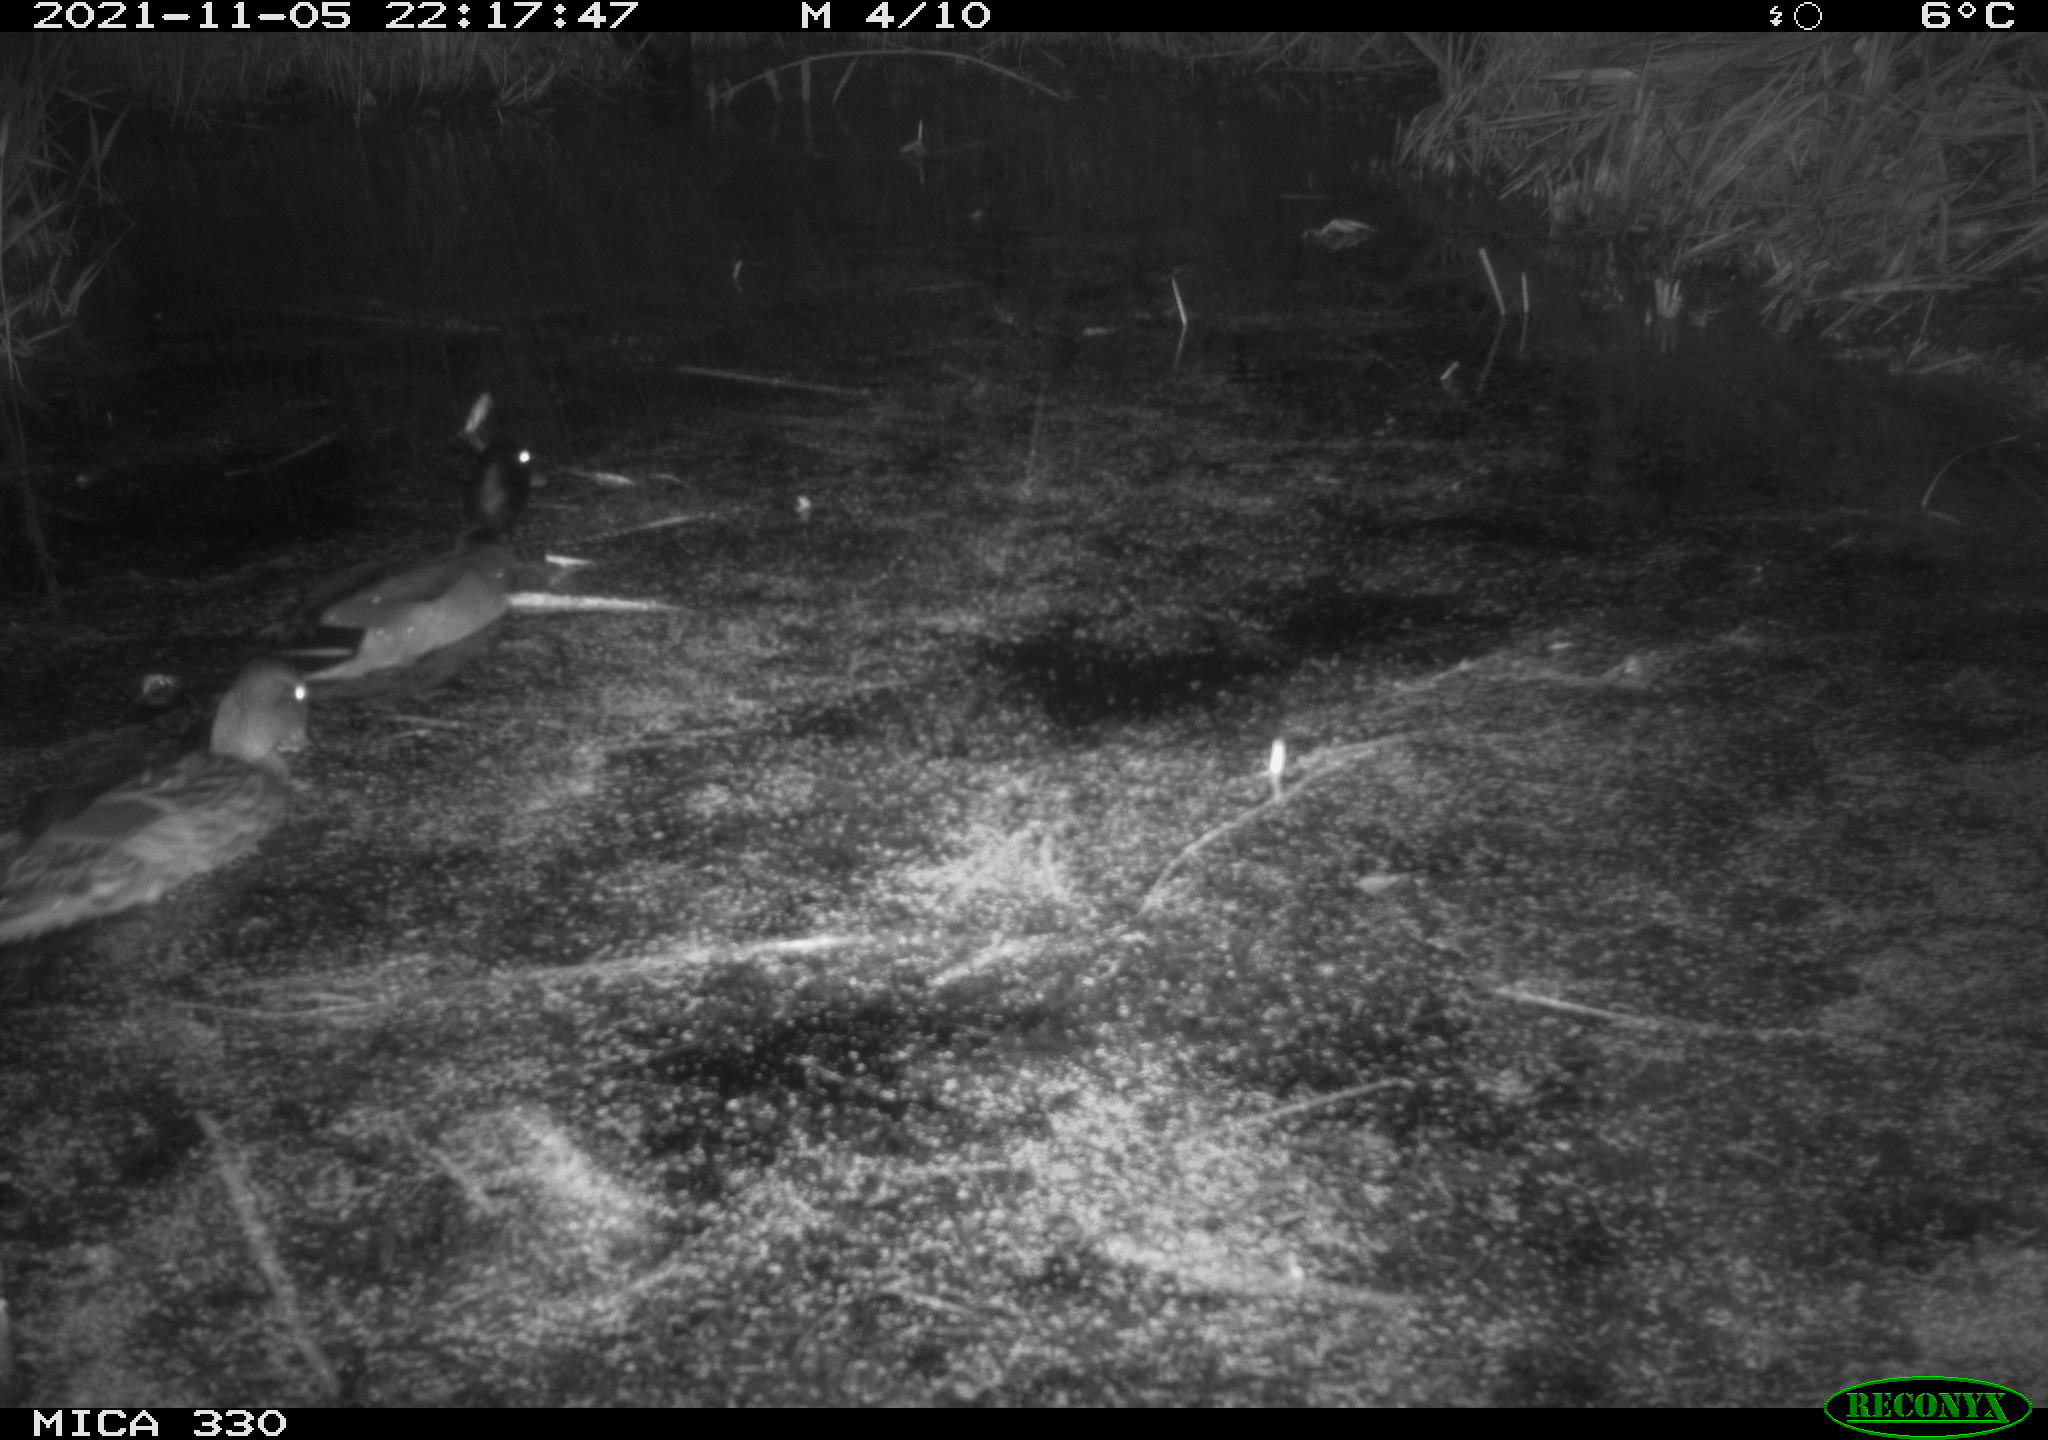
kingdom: Animalia
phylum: Chordata
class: Aves
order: Anseriformes
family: Anatidae
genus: Anas
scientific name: Anas platyrhynchos
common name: Mallard
